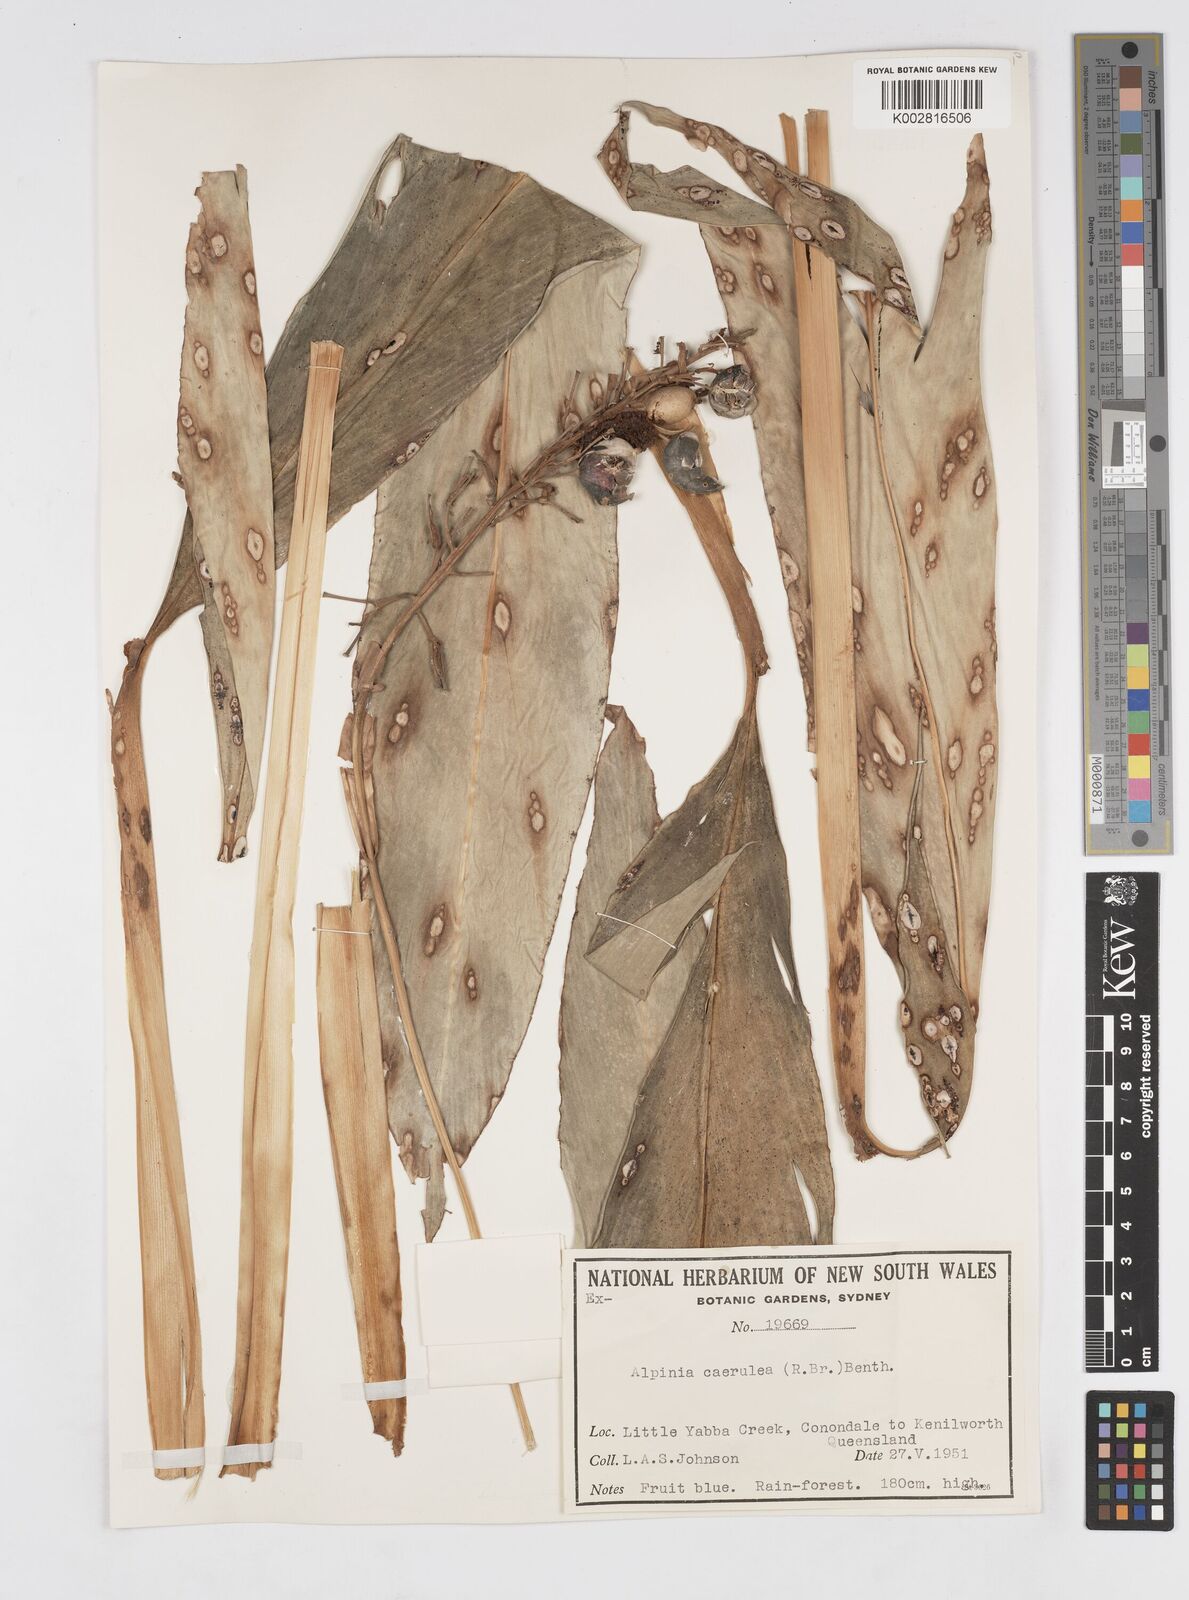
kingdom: Plantae
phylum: Tracheophyta
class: Liliopsida
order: Zingiberales
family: Zingiberaceae
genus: Alpinia
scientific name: Alpinia
